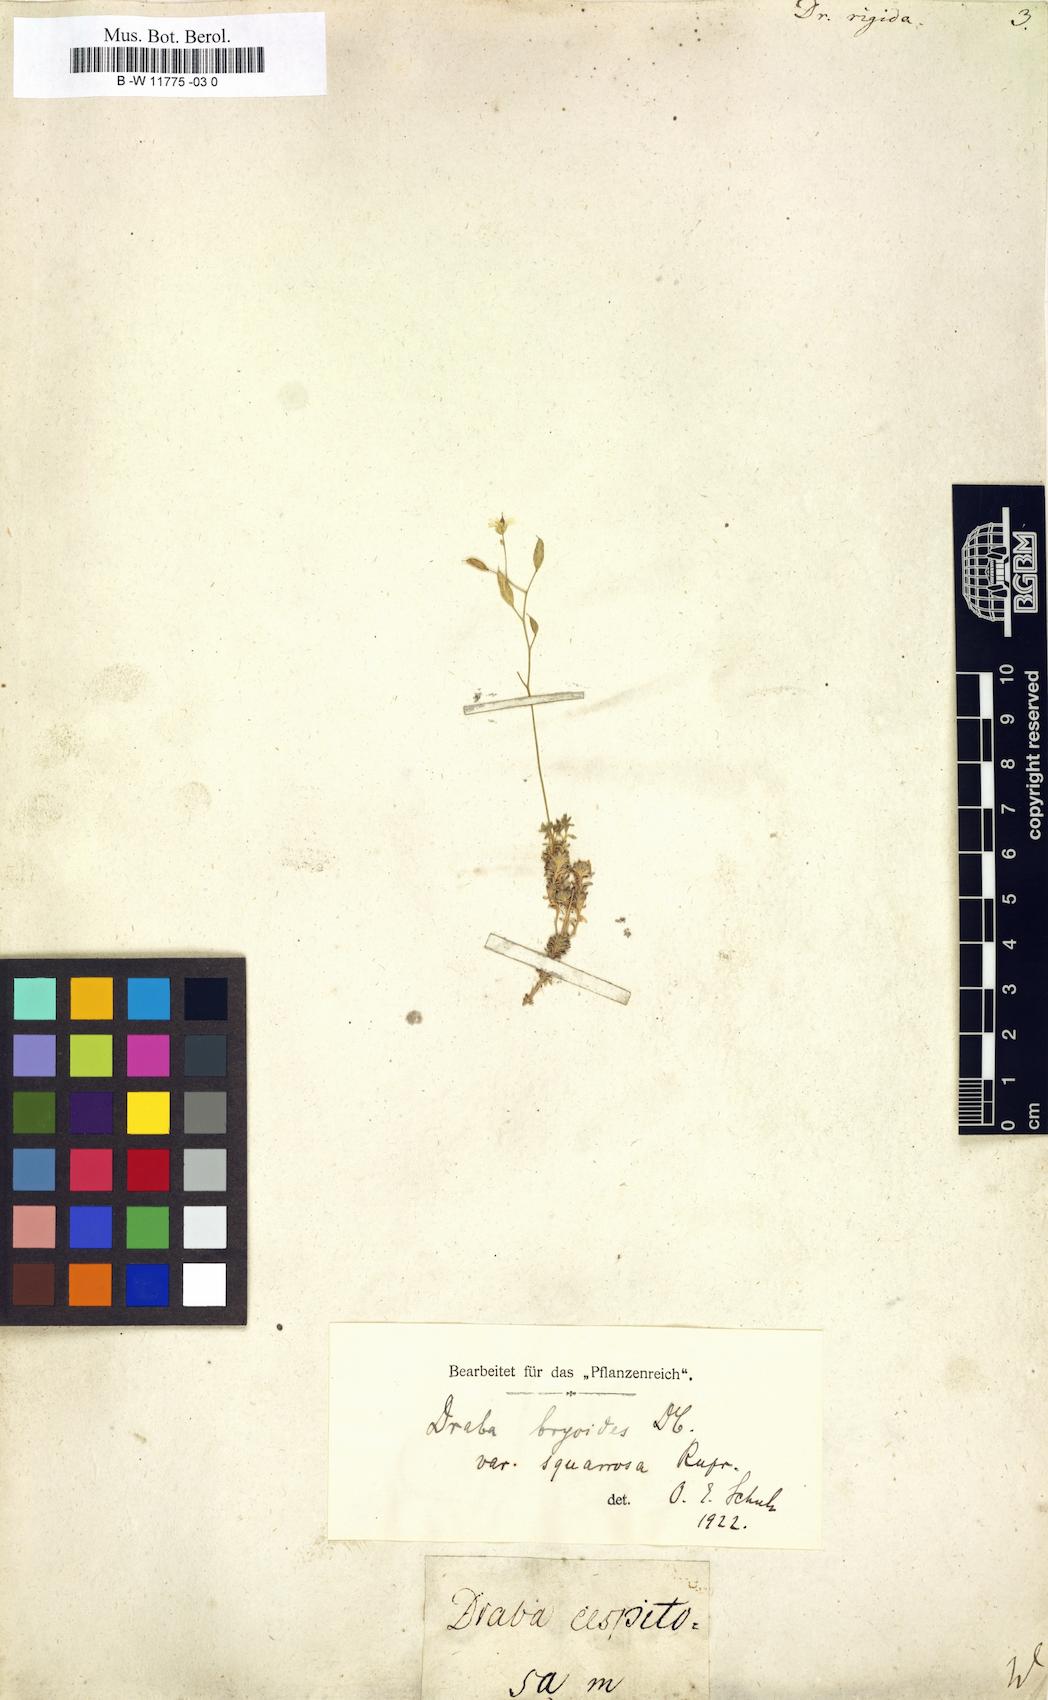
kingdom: Plantae
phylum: Tracheophyta
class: Magnoliopsida
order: Brassicales
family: Brassicaceae
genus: Draba
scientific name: Draba rigida
